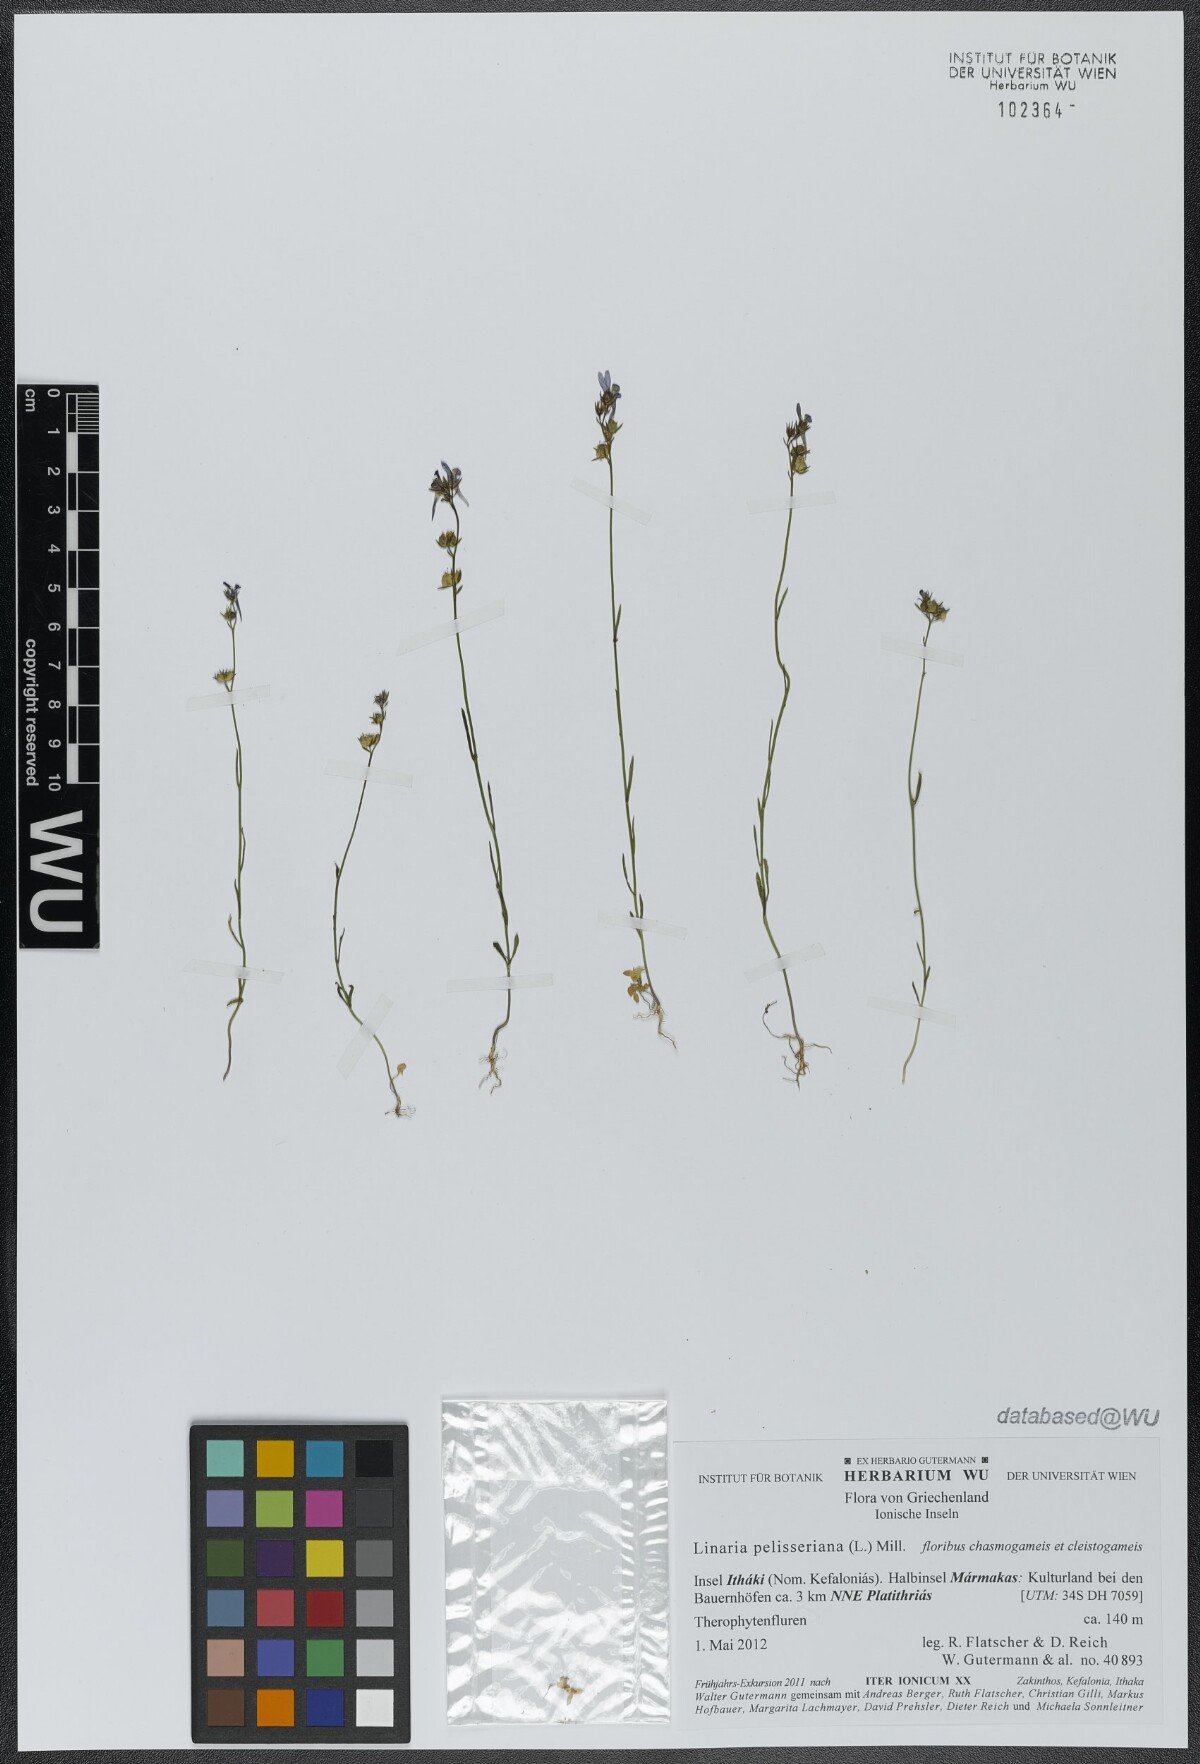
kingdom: Plantae
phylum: Tracheophyta
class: Magnoliopsida
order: Lamiales
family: Plantaginaceae
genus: Linaria
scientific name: Linaria pelisseriana
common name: Jersey toadflax
